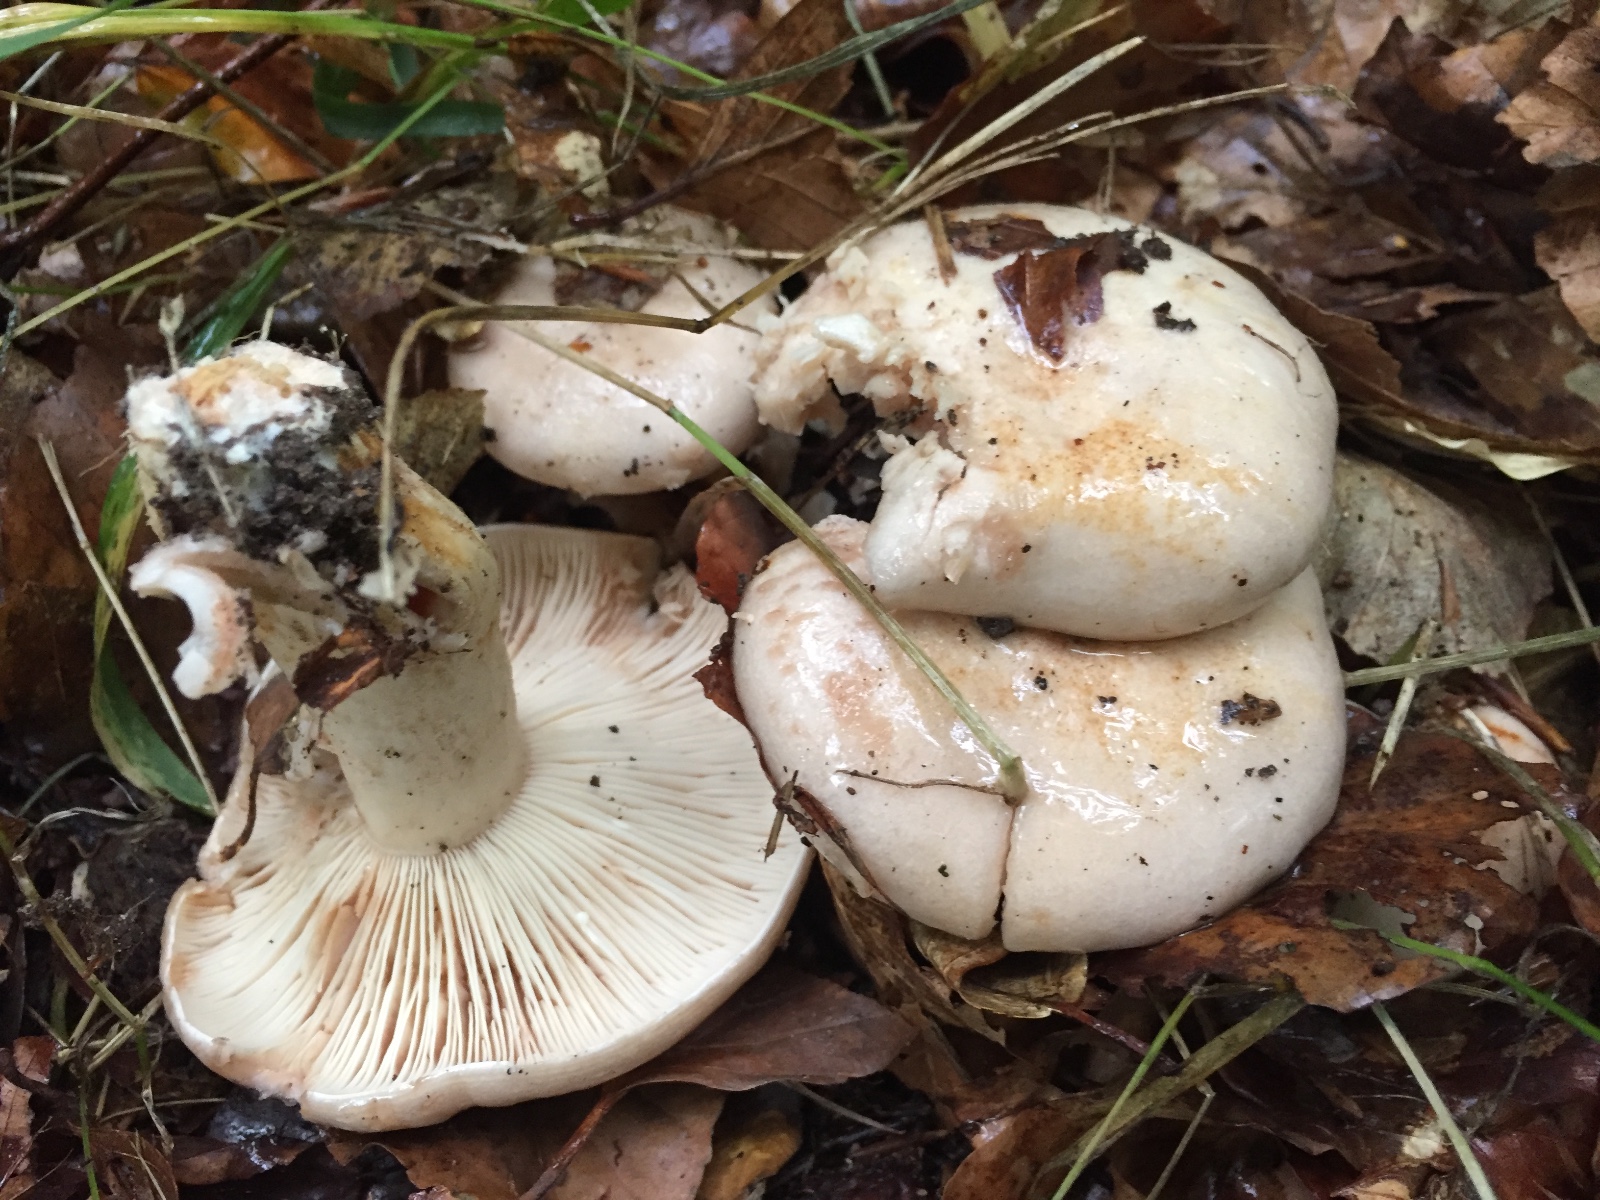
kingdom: Fungi
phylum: Basidiomycota
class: Agaricomycetes
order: Russulales
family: Russulaceae
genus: Lactarius
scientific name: Lactarius pallidus
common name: bleg mælkehat
